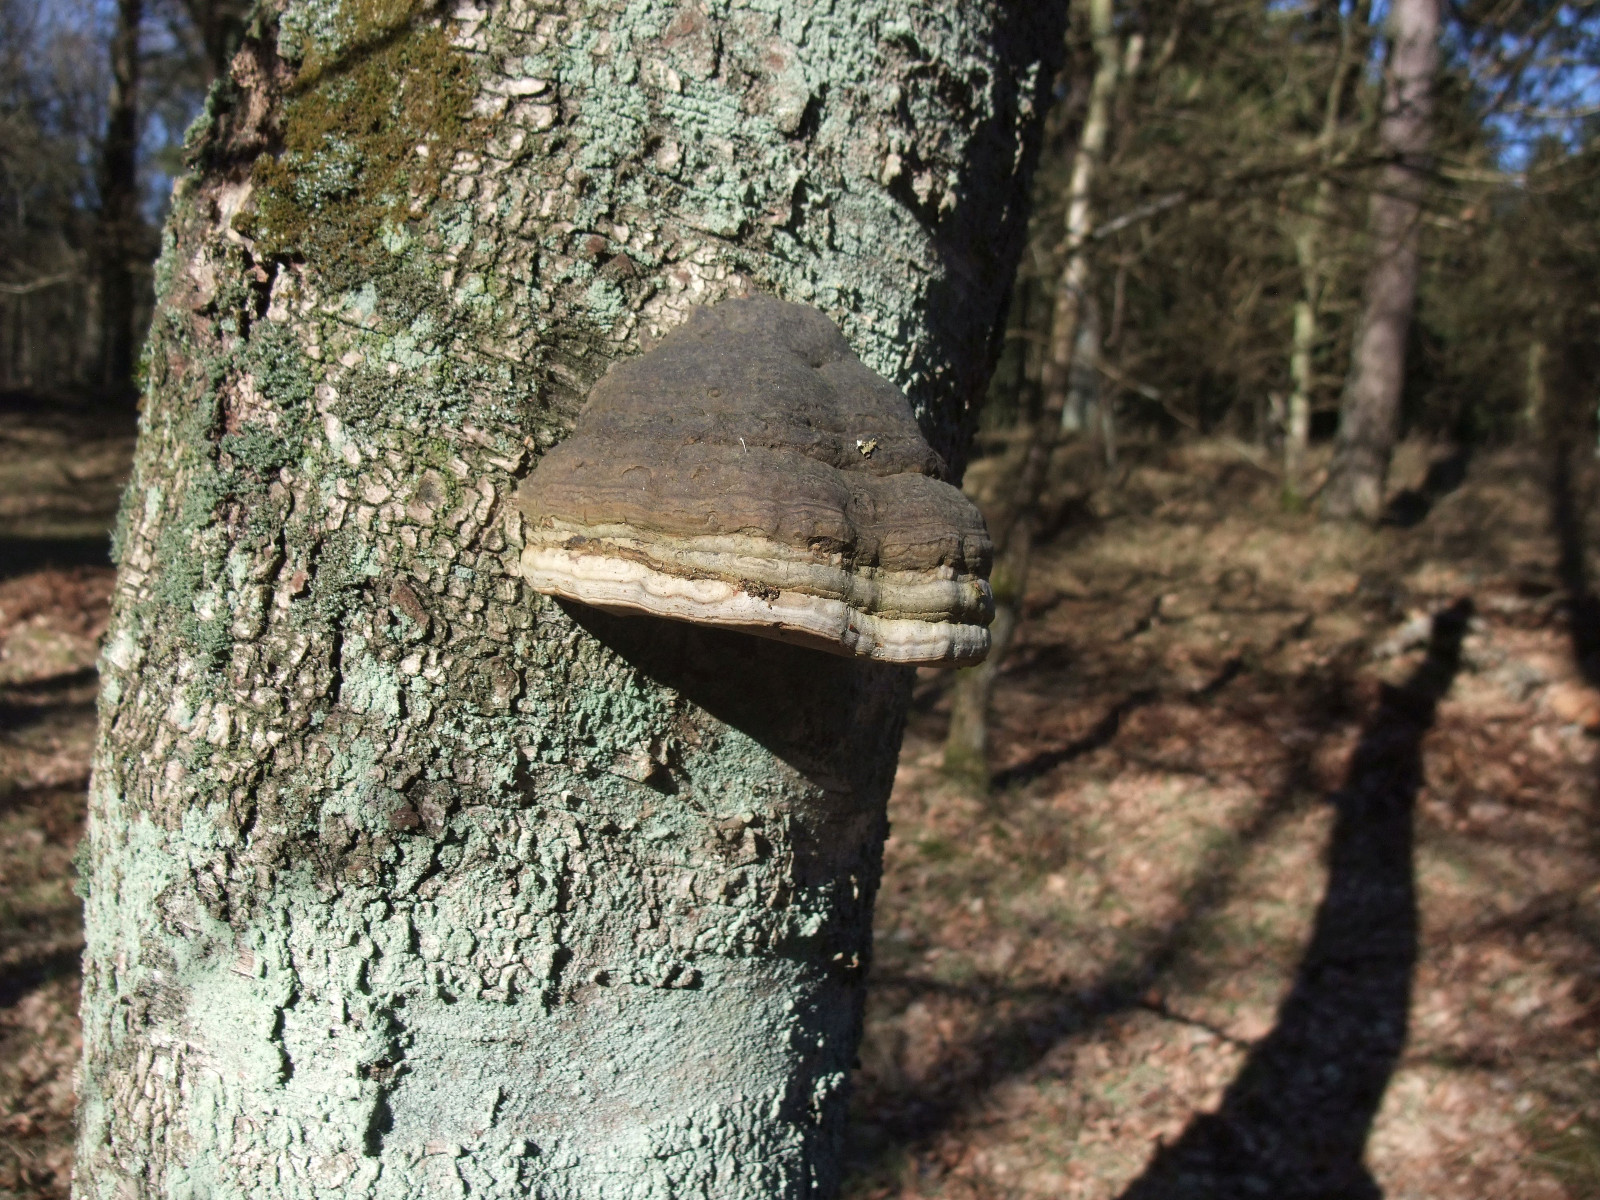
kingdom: Fungi
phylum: Basidiomycota
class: Agaricomycetes
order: Polyporales
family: Polyporaceae
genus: Fomes
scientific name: Fomes fomentarius
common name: tøndersvamp
